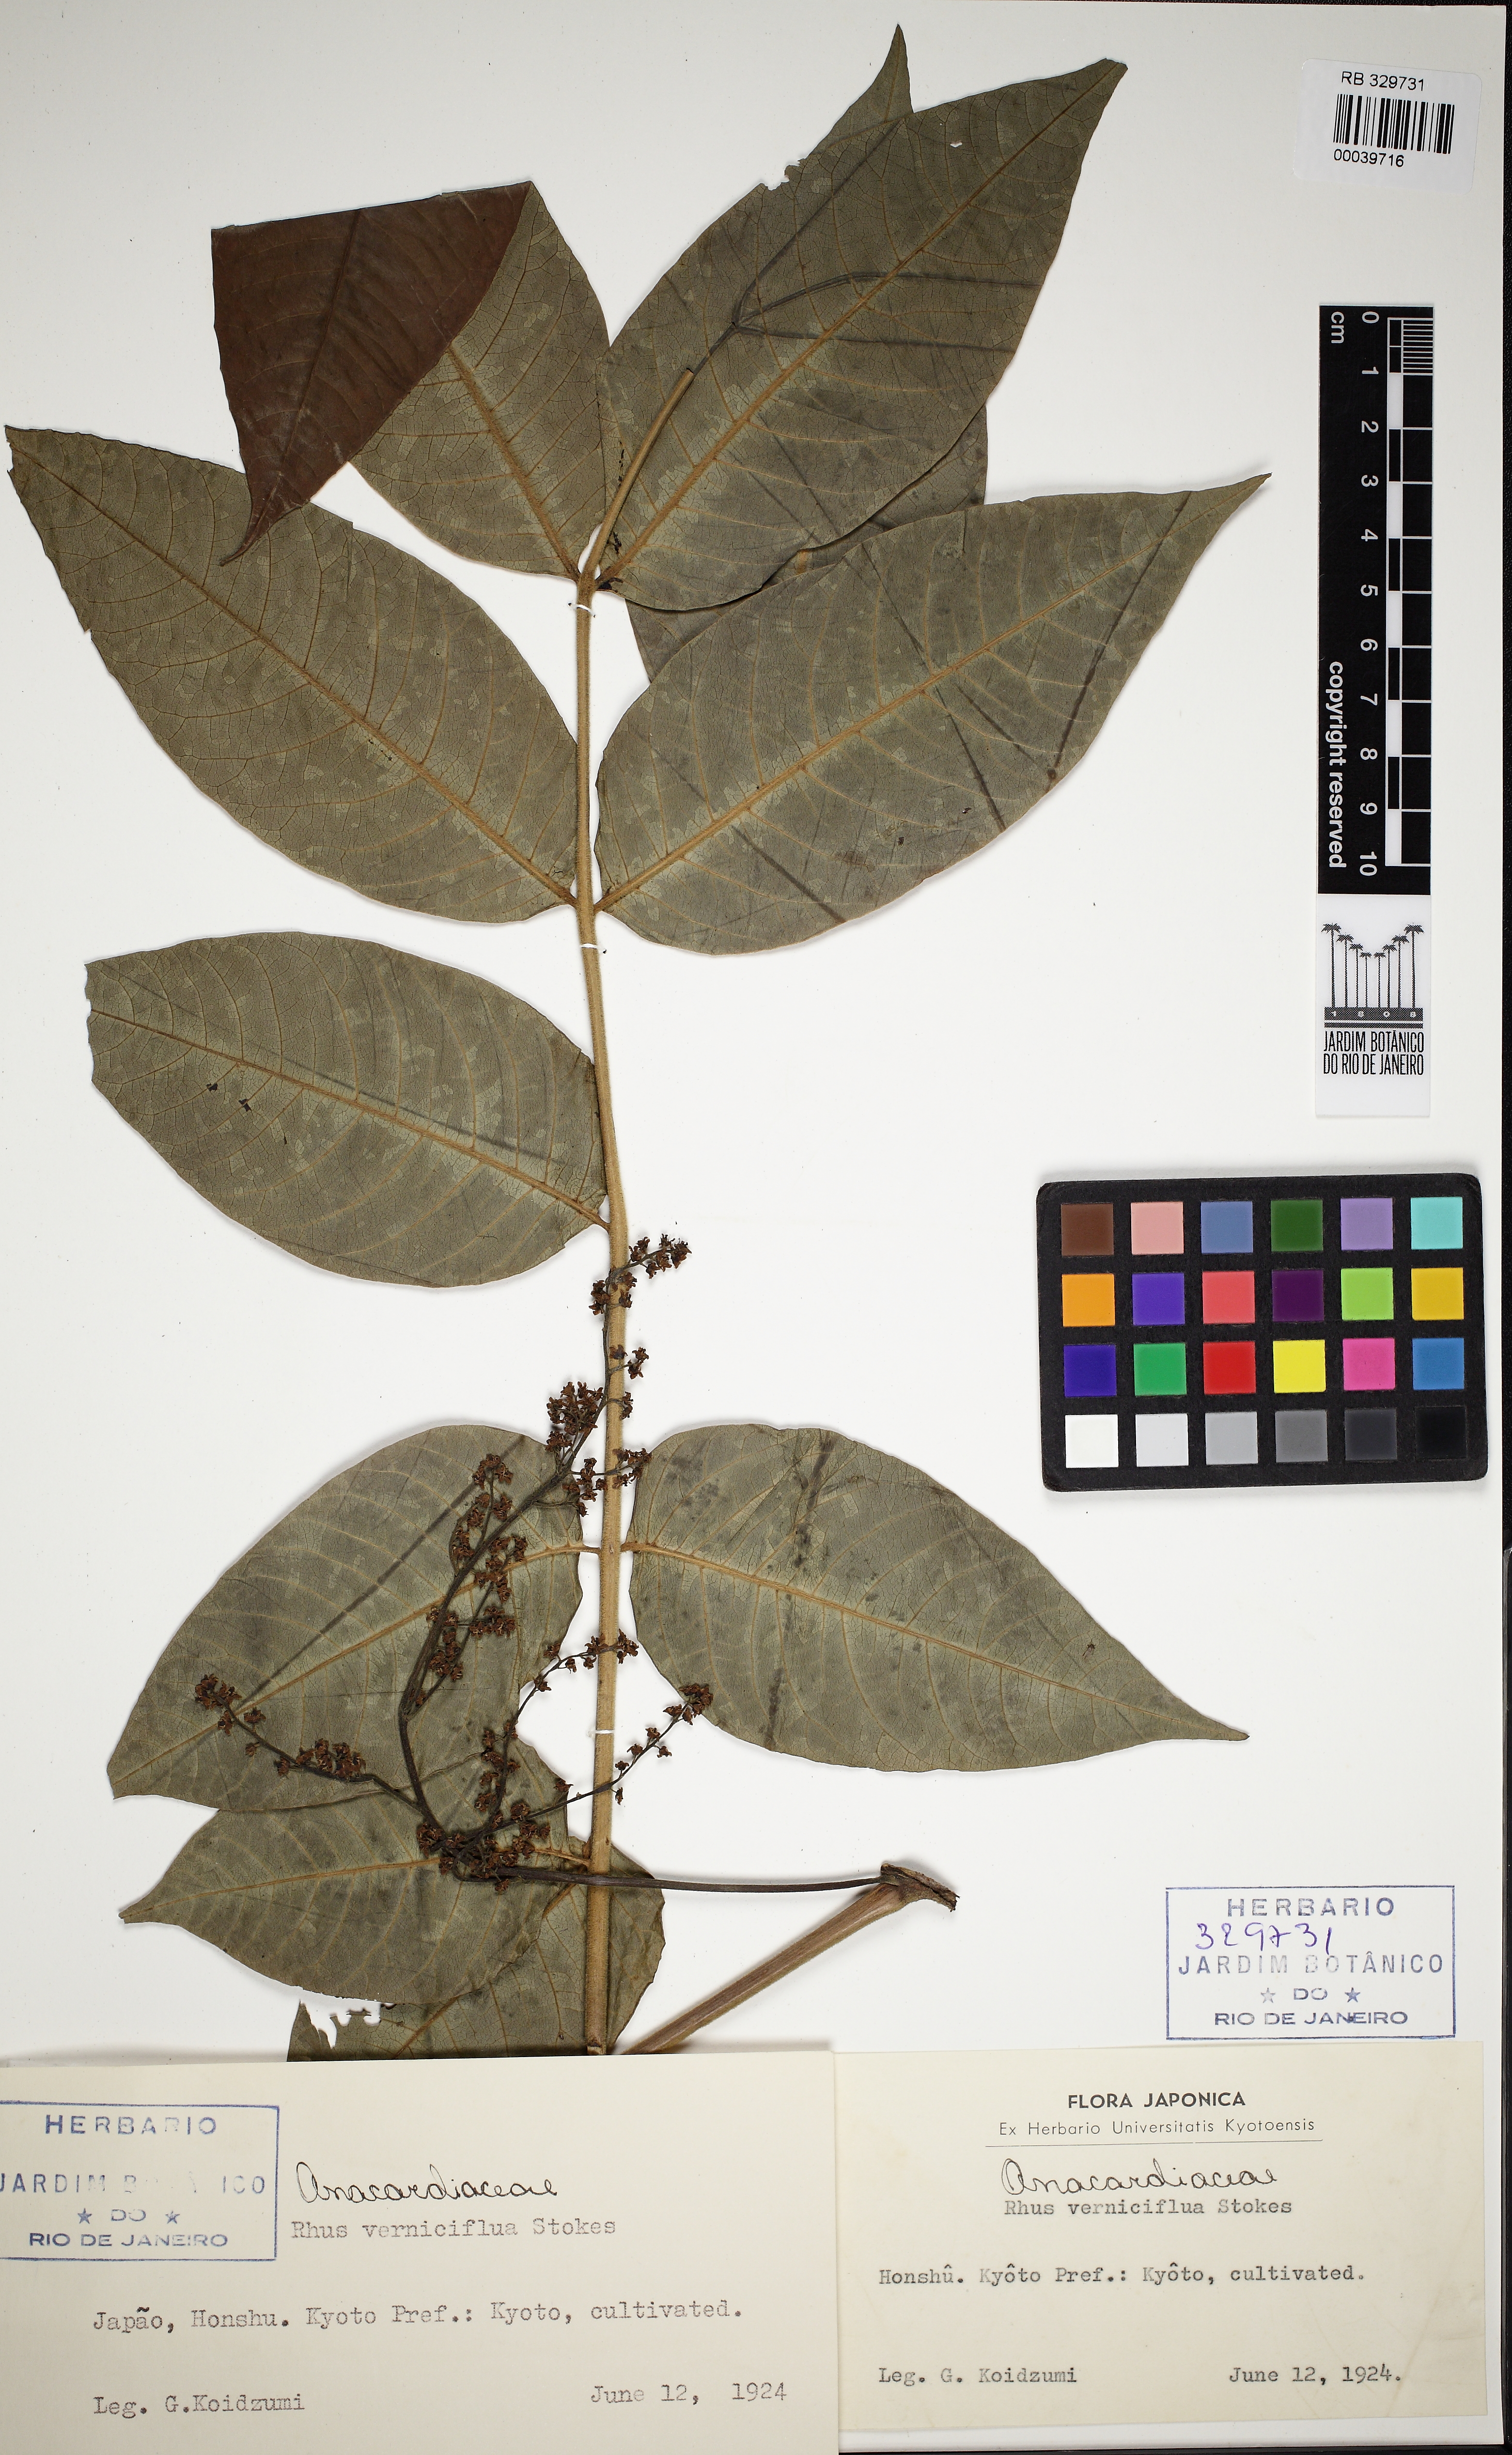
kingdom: Plantae
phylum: Tracheophyta
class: Magnoliopsida
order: Sapindales
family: Anacardiaceae
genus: Toxicodendron
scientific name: Toxicodendron vernicifluum
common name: Japanese lacquertree
